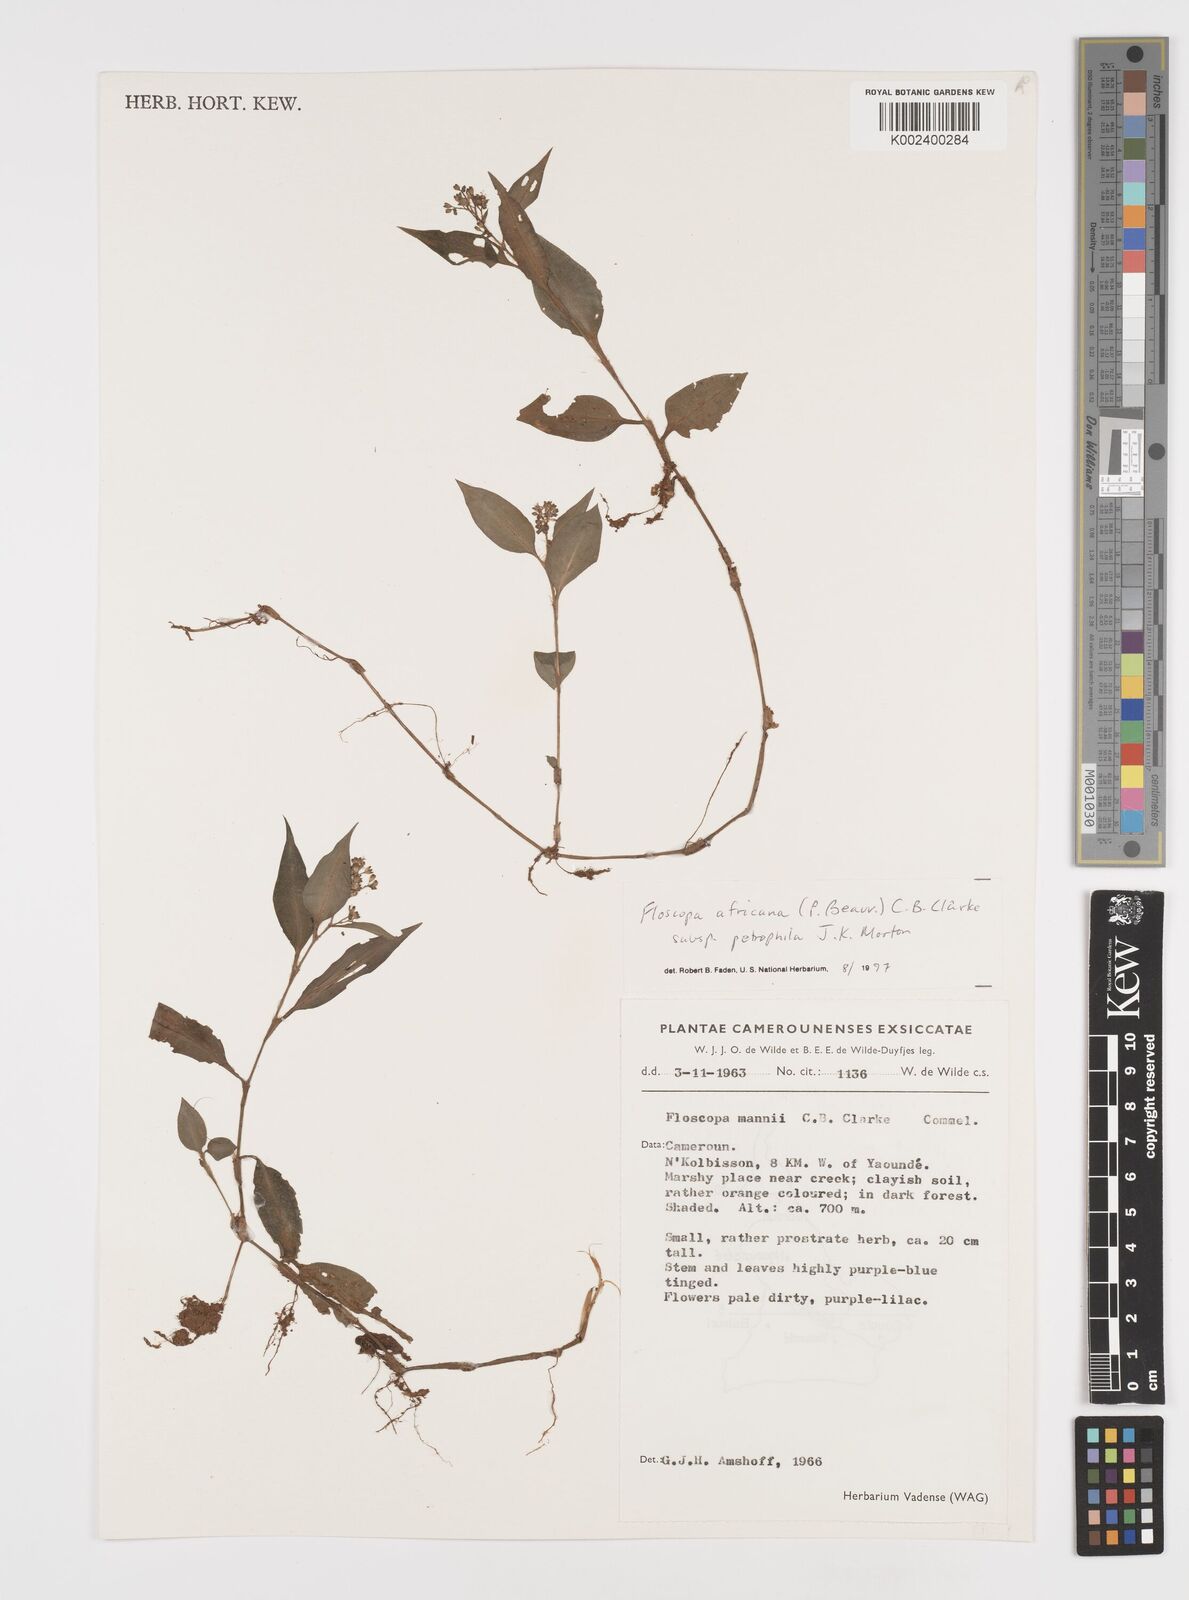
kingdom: Plantae
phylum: Tracheophyta
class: Liliopsida
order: Commelinales
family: Commelinaceae
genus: Floscopa
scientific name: Floscopa africana
